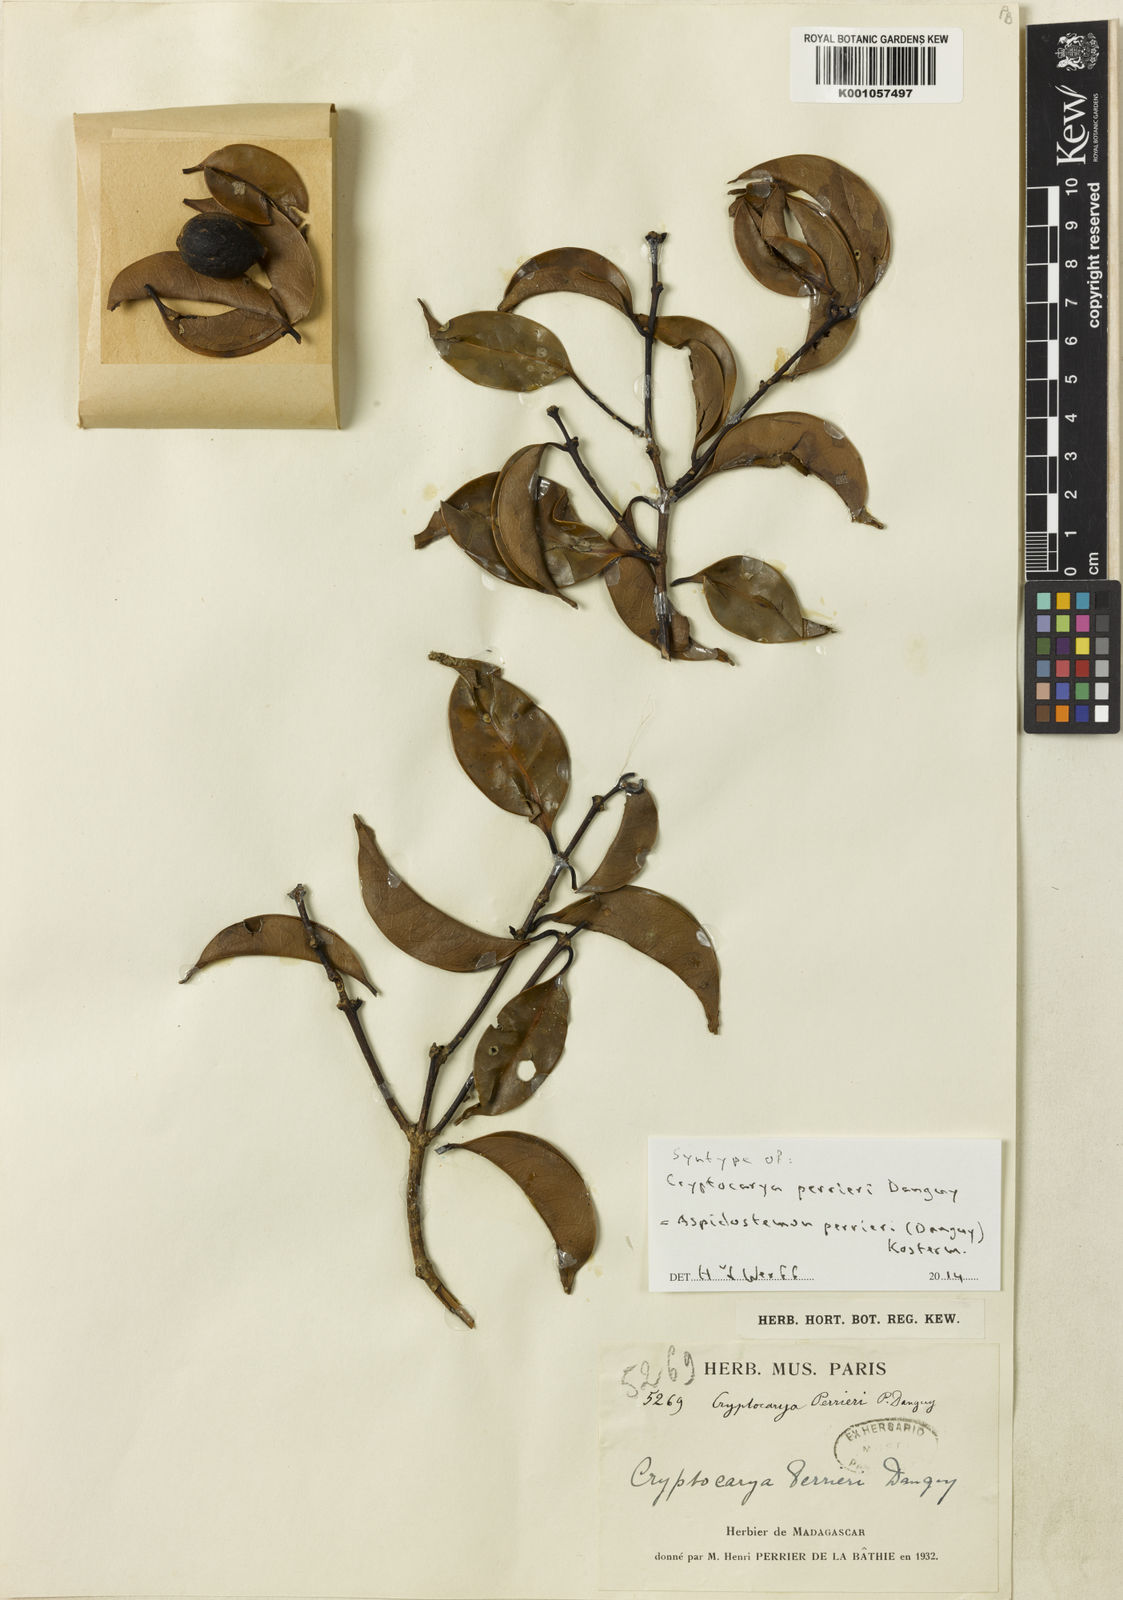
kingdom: Plantae
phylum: Tracheophyta
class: Magnoliopsida
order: Laurales
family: Lauraceae
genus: Aspidostemon
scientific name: Aspidostemon perrieri
